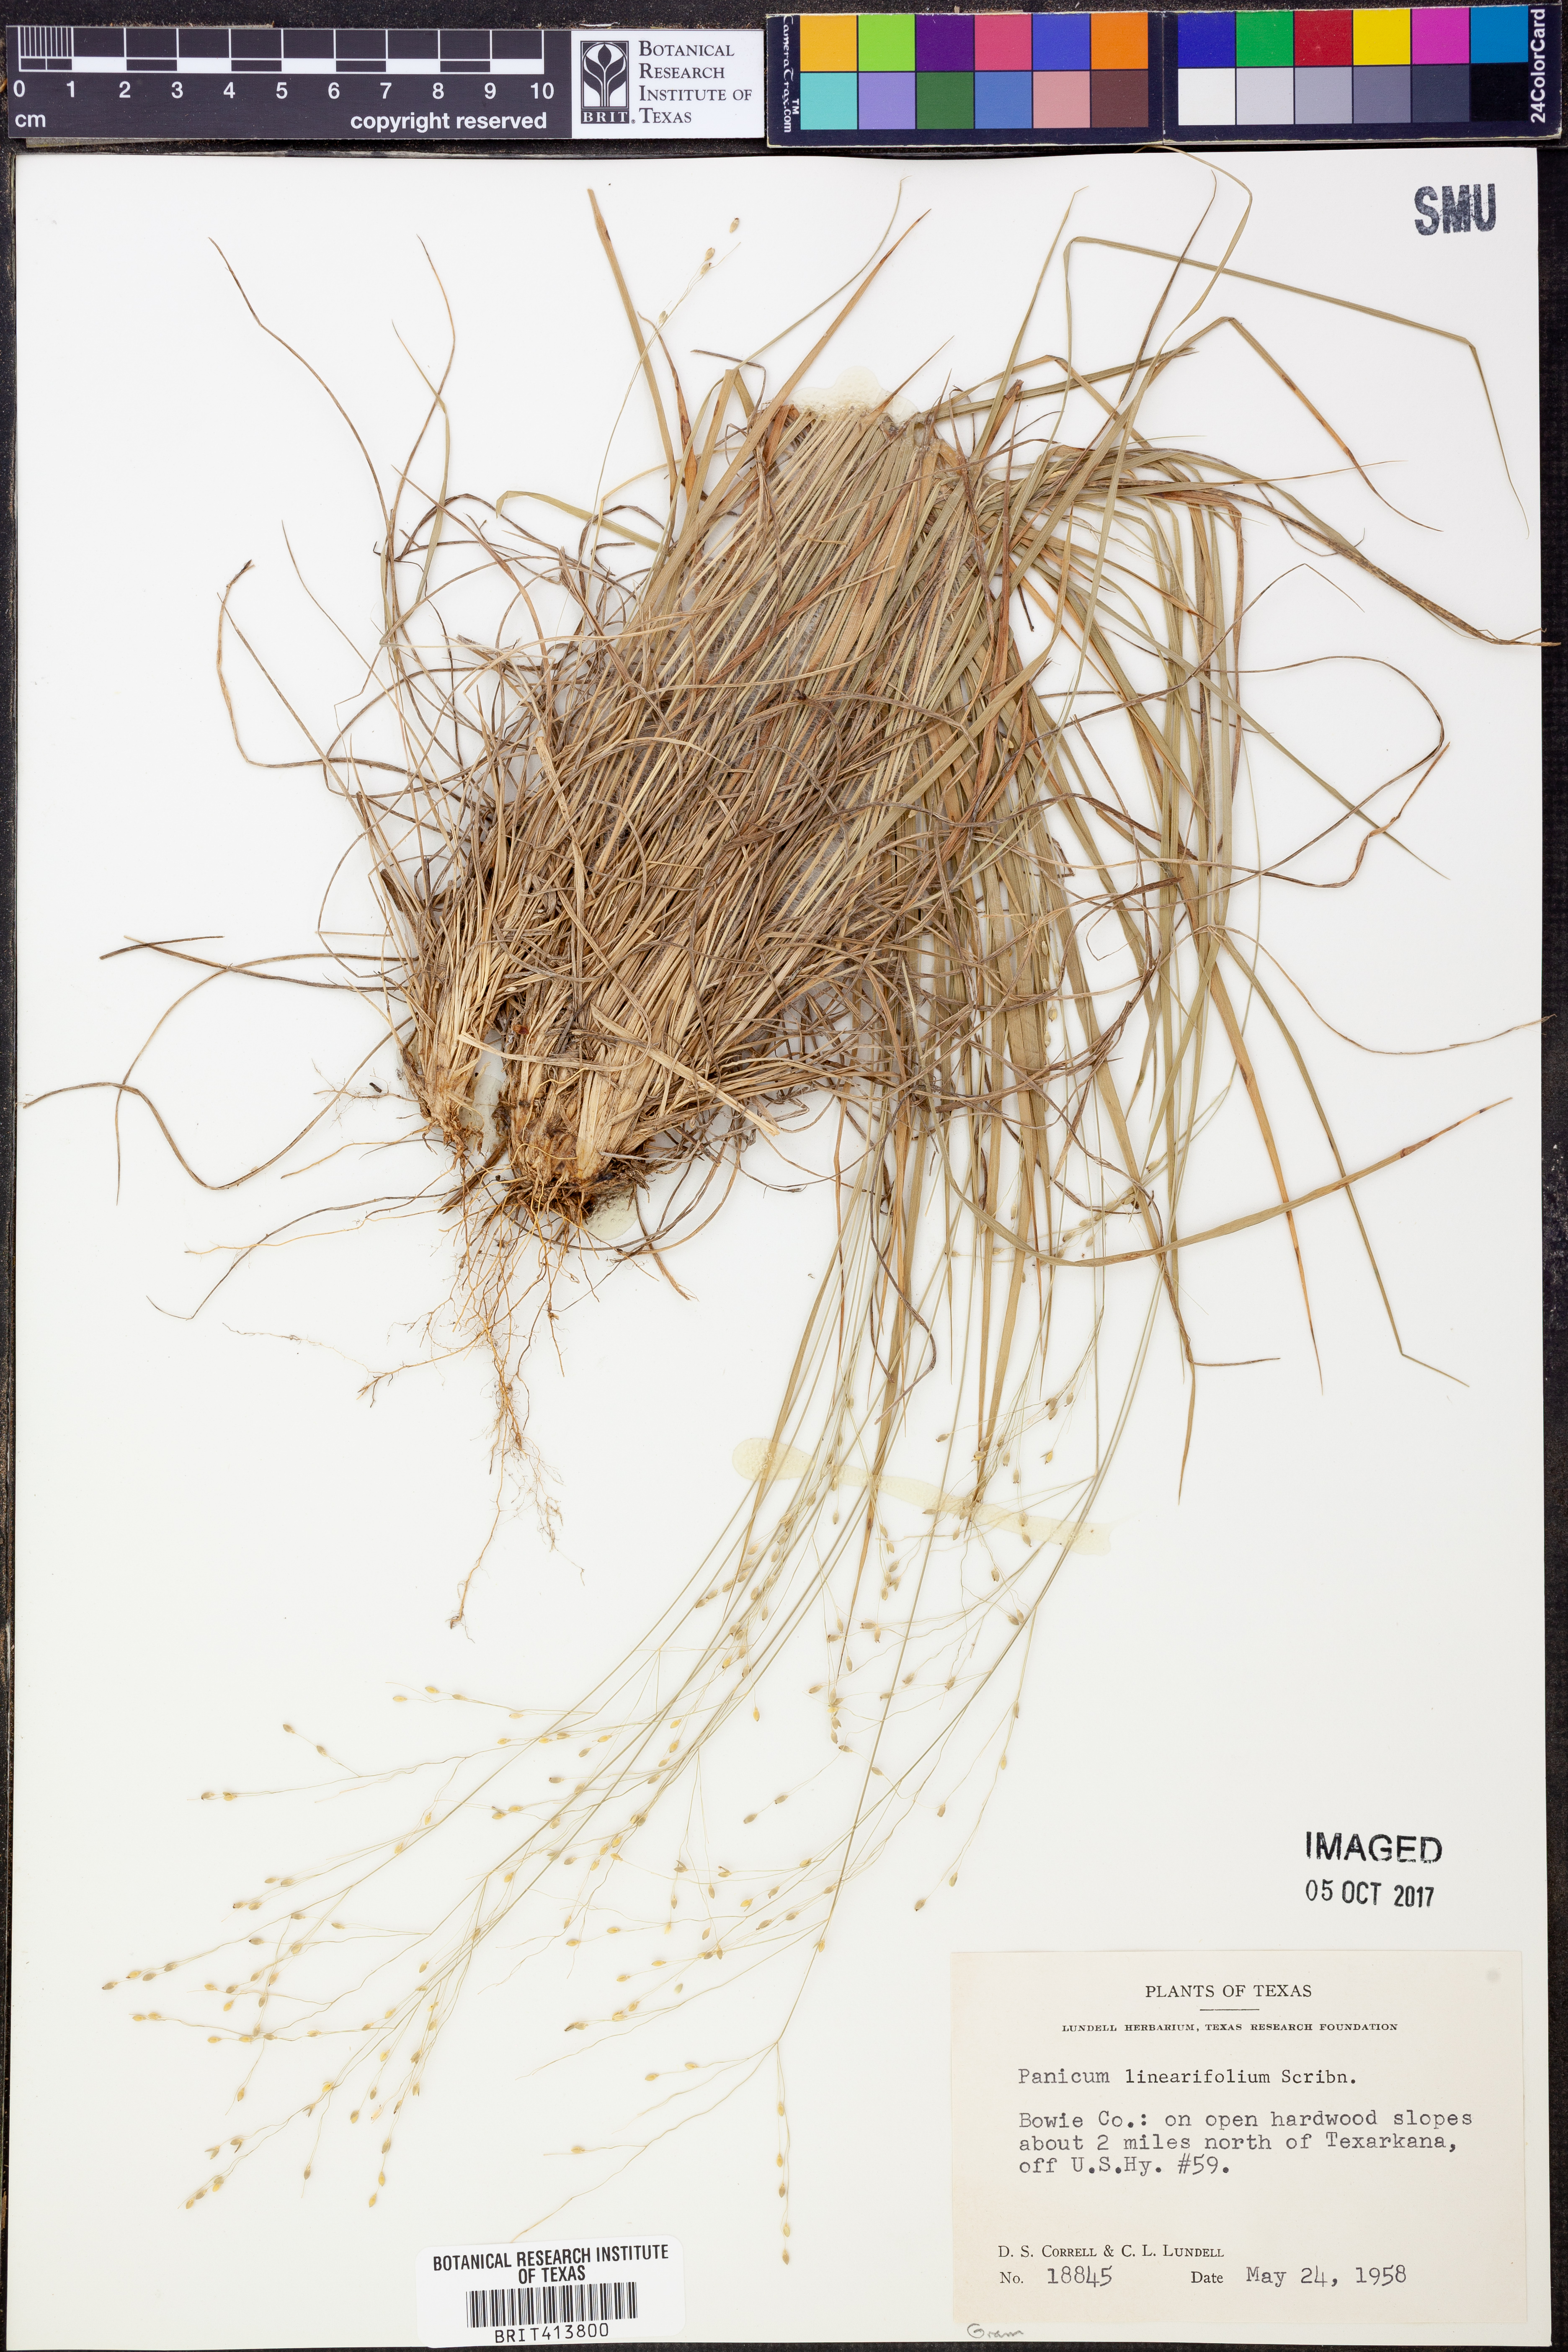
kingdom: Plantae
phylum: Tracheophyta
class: Liliopsida
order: Poales
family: Poaceae
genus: Dichanthelium
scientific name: Dichanthelium linearifolium
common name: Linear-leaved panicgrass
